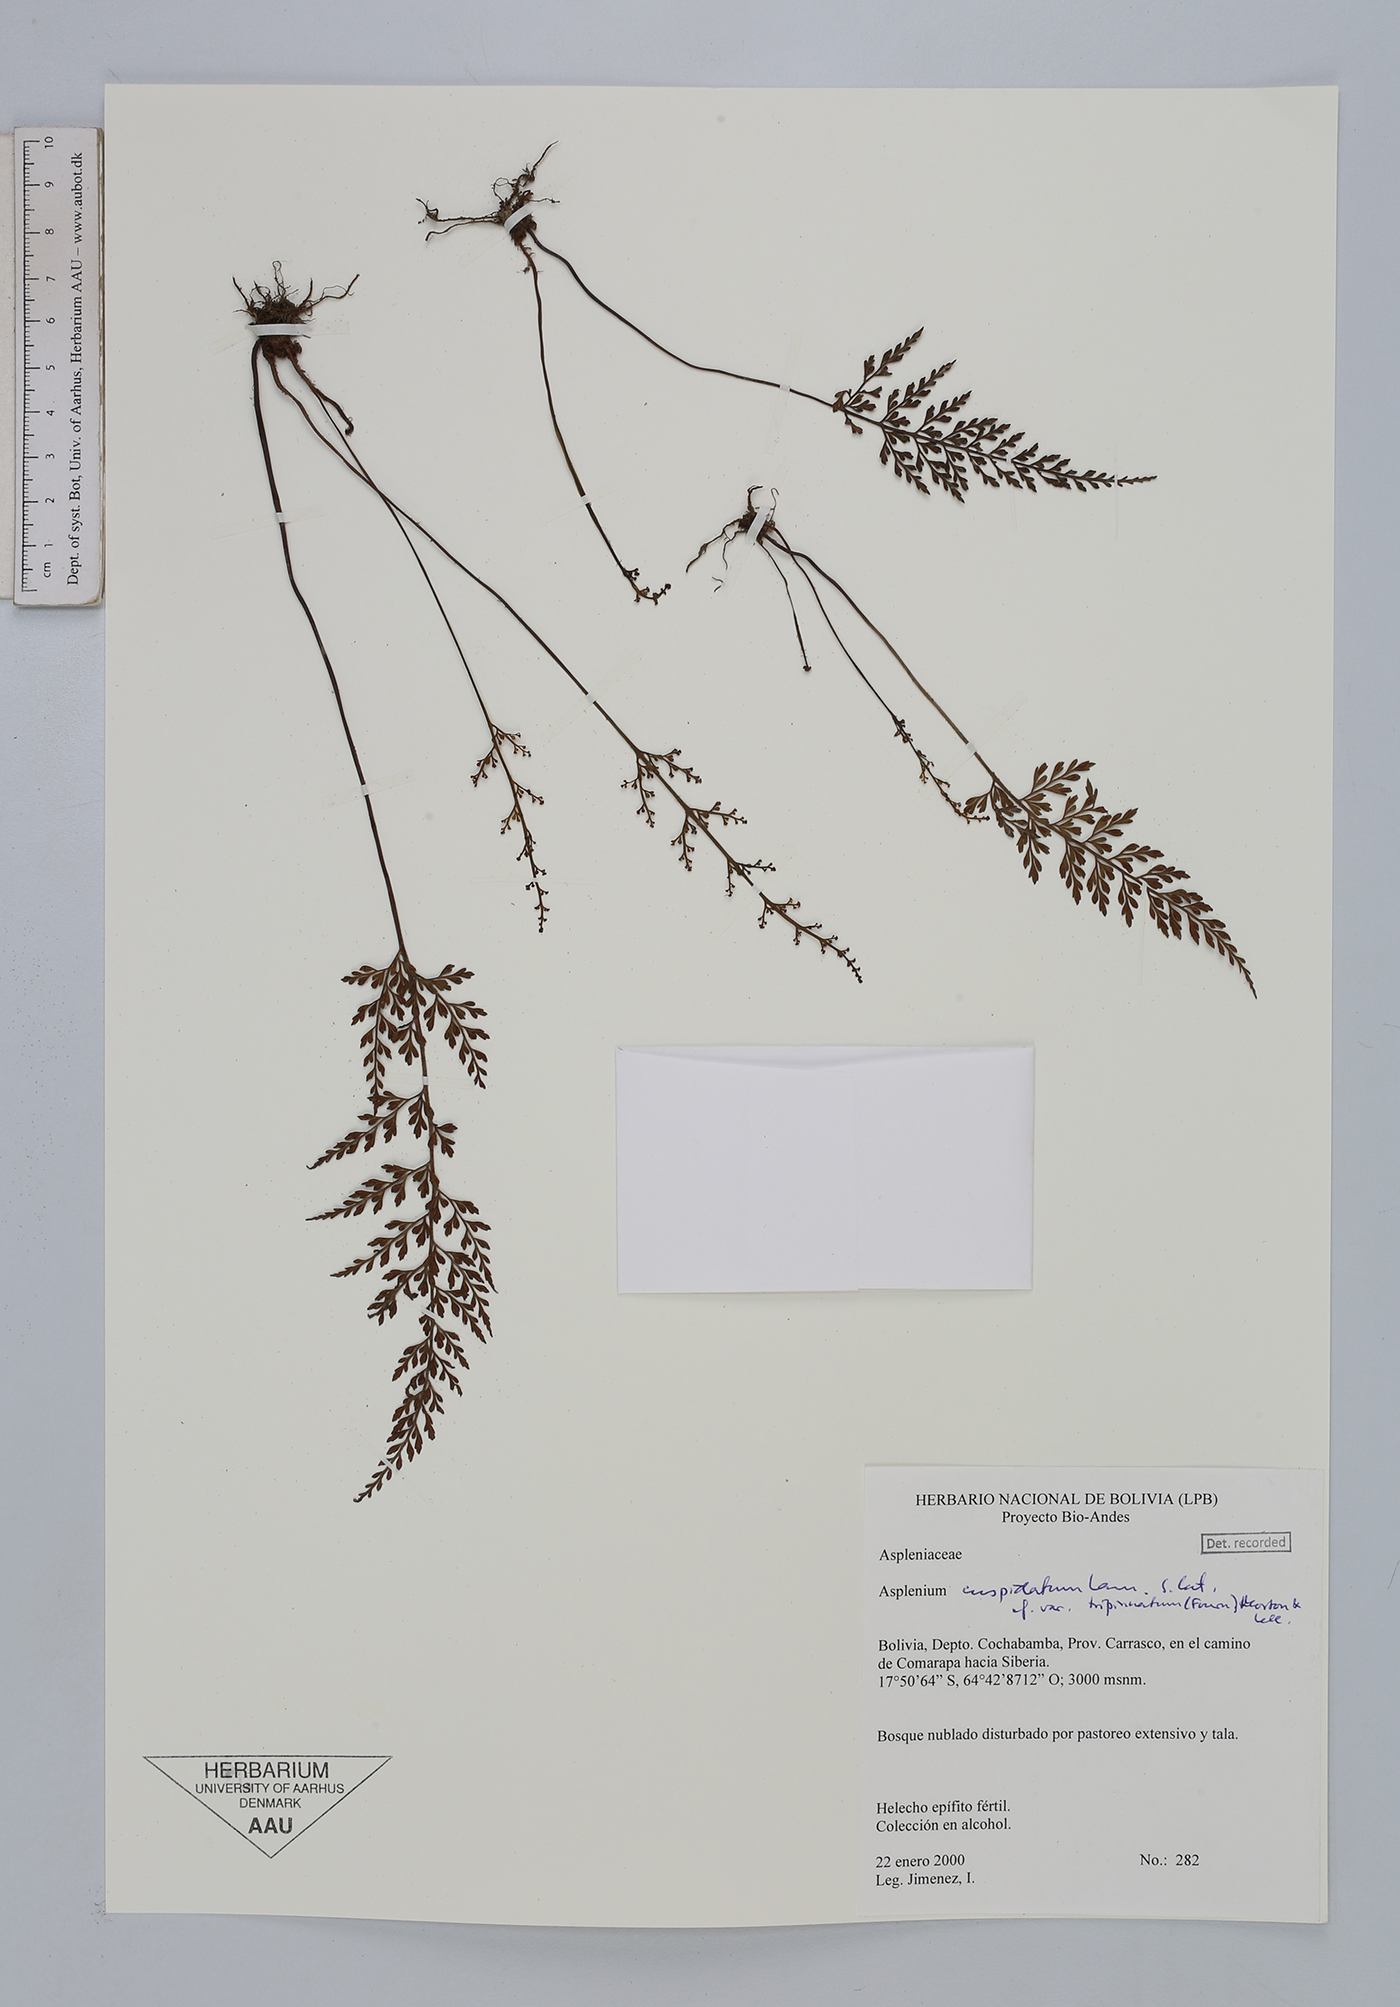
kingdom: Plantae
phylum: Tracheophyta
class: Polypodiopsida
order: Polypodiales
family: Aspleniaceae
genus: Asplenium
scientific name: Asplenium fragrans
